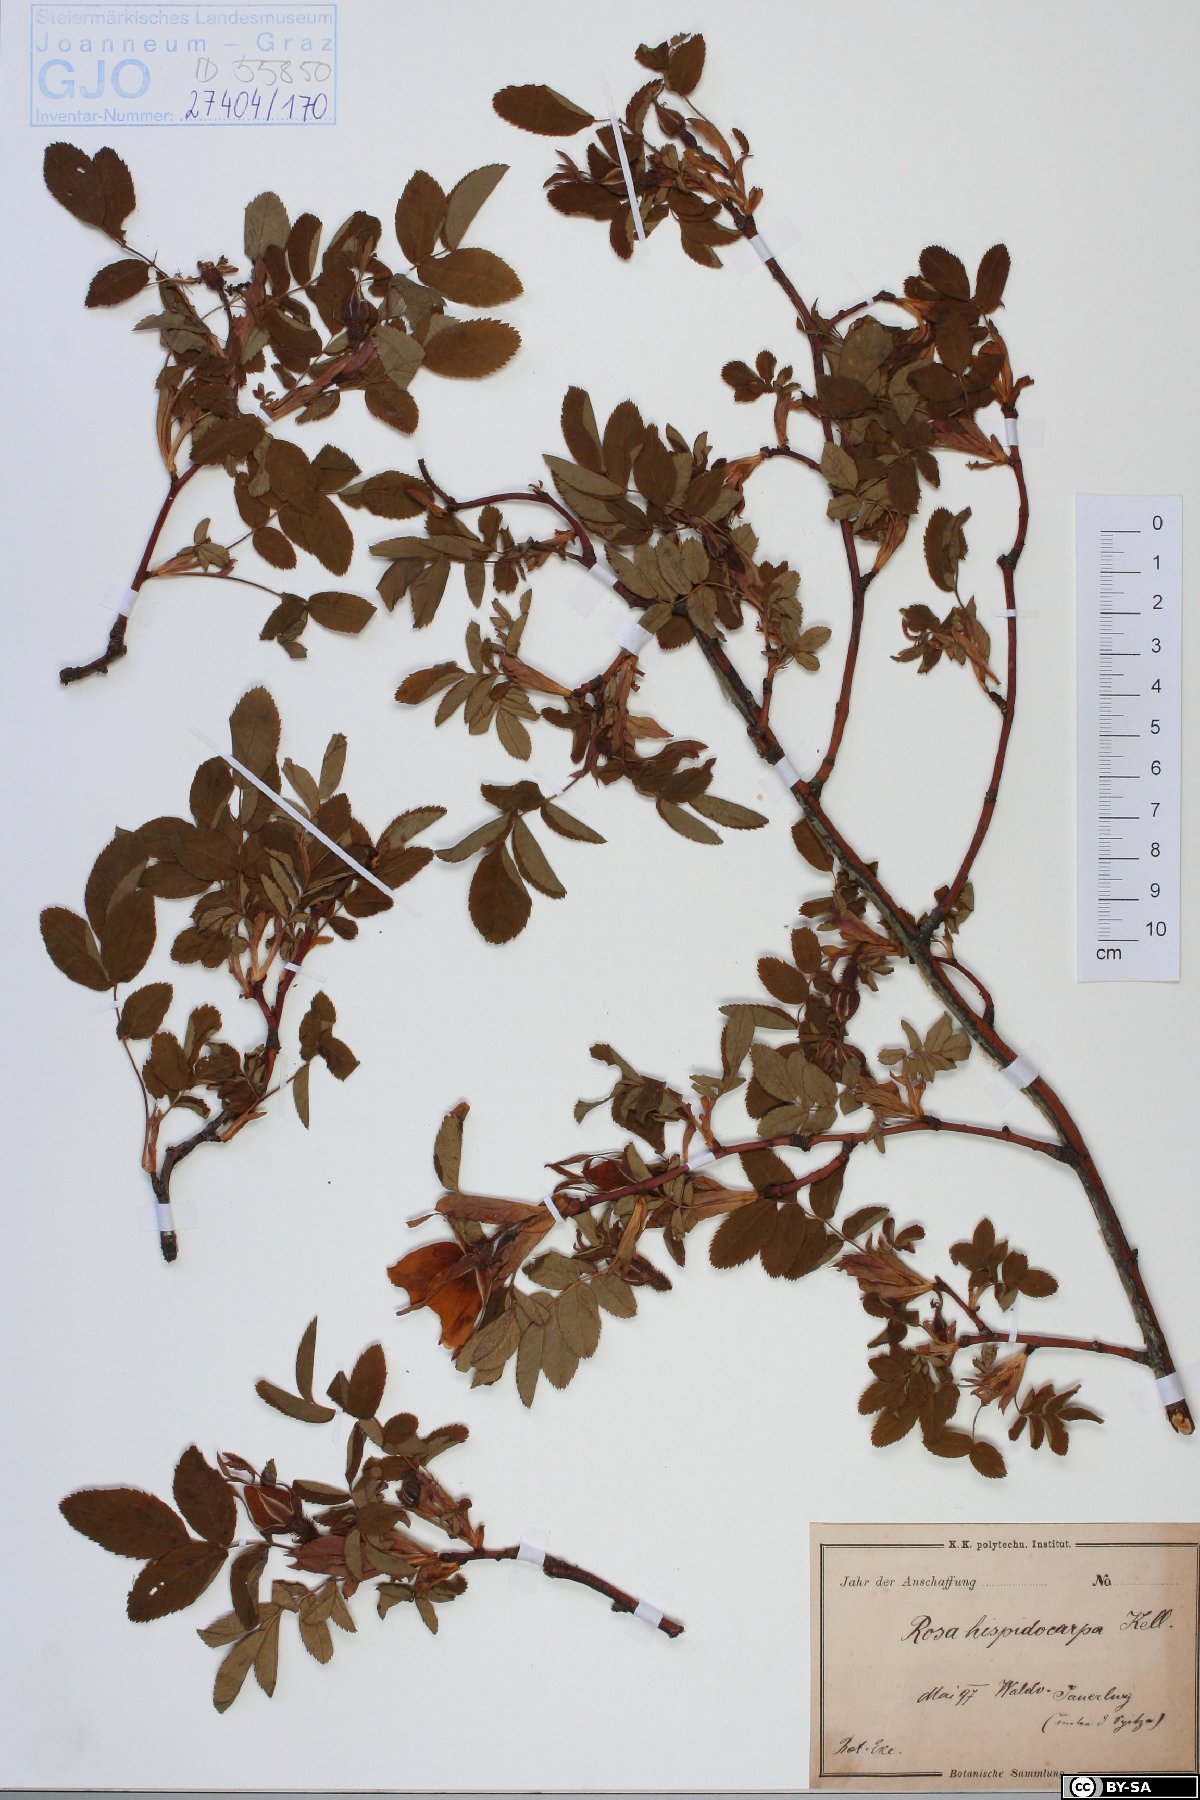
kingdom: Plantae
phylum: Tracheophyta
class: Magnoliopsida
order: Rosales
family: Rosaceae
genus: Rosa
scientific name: Rosa marginata
